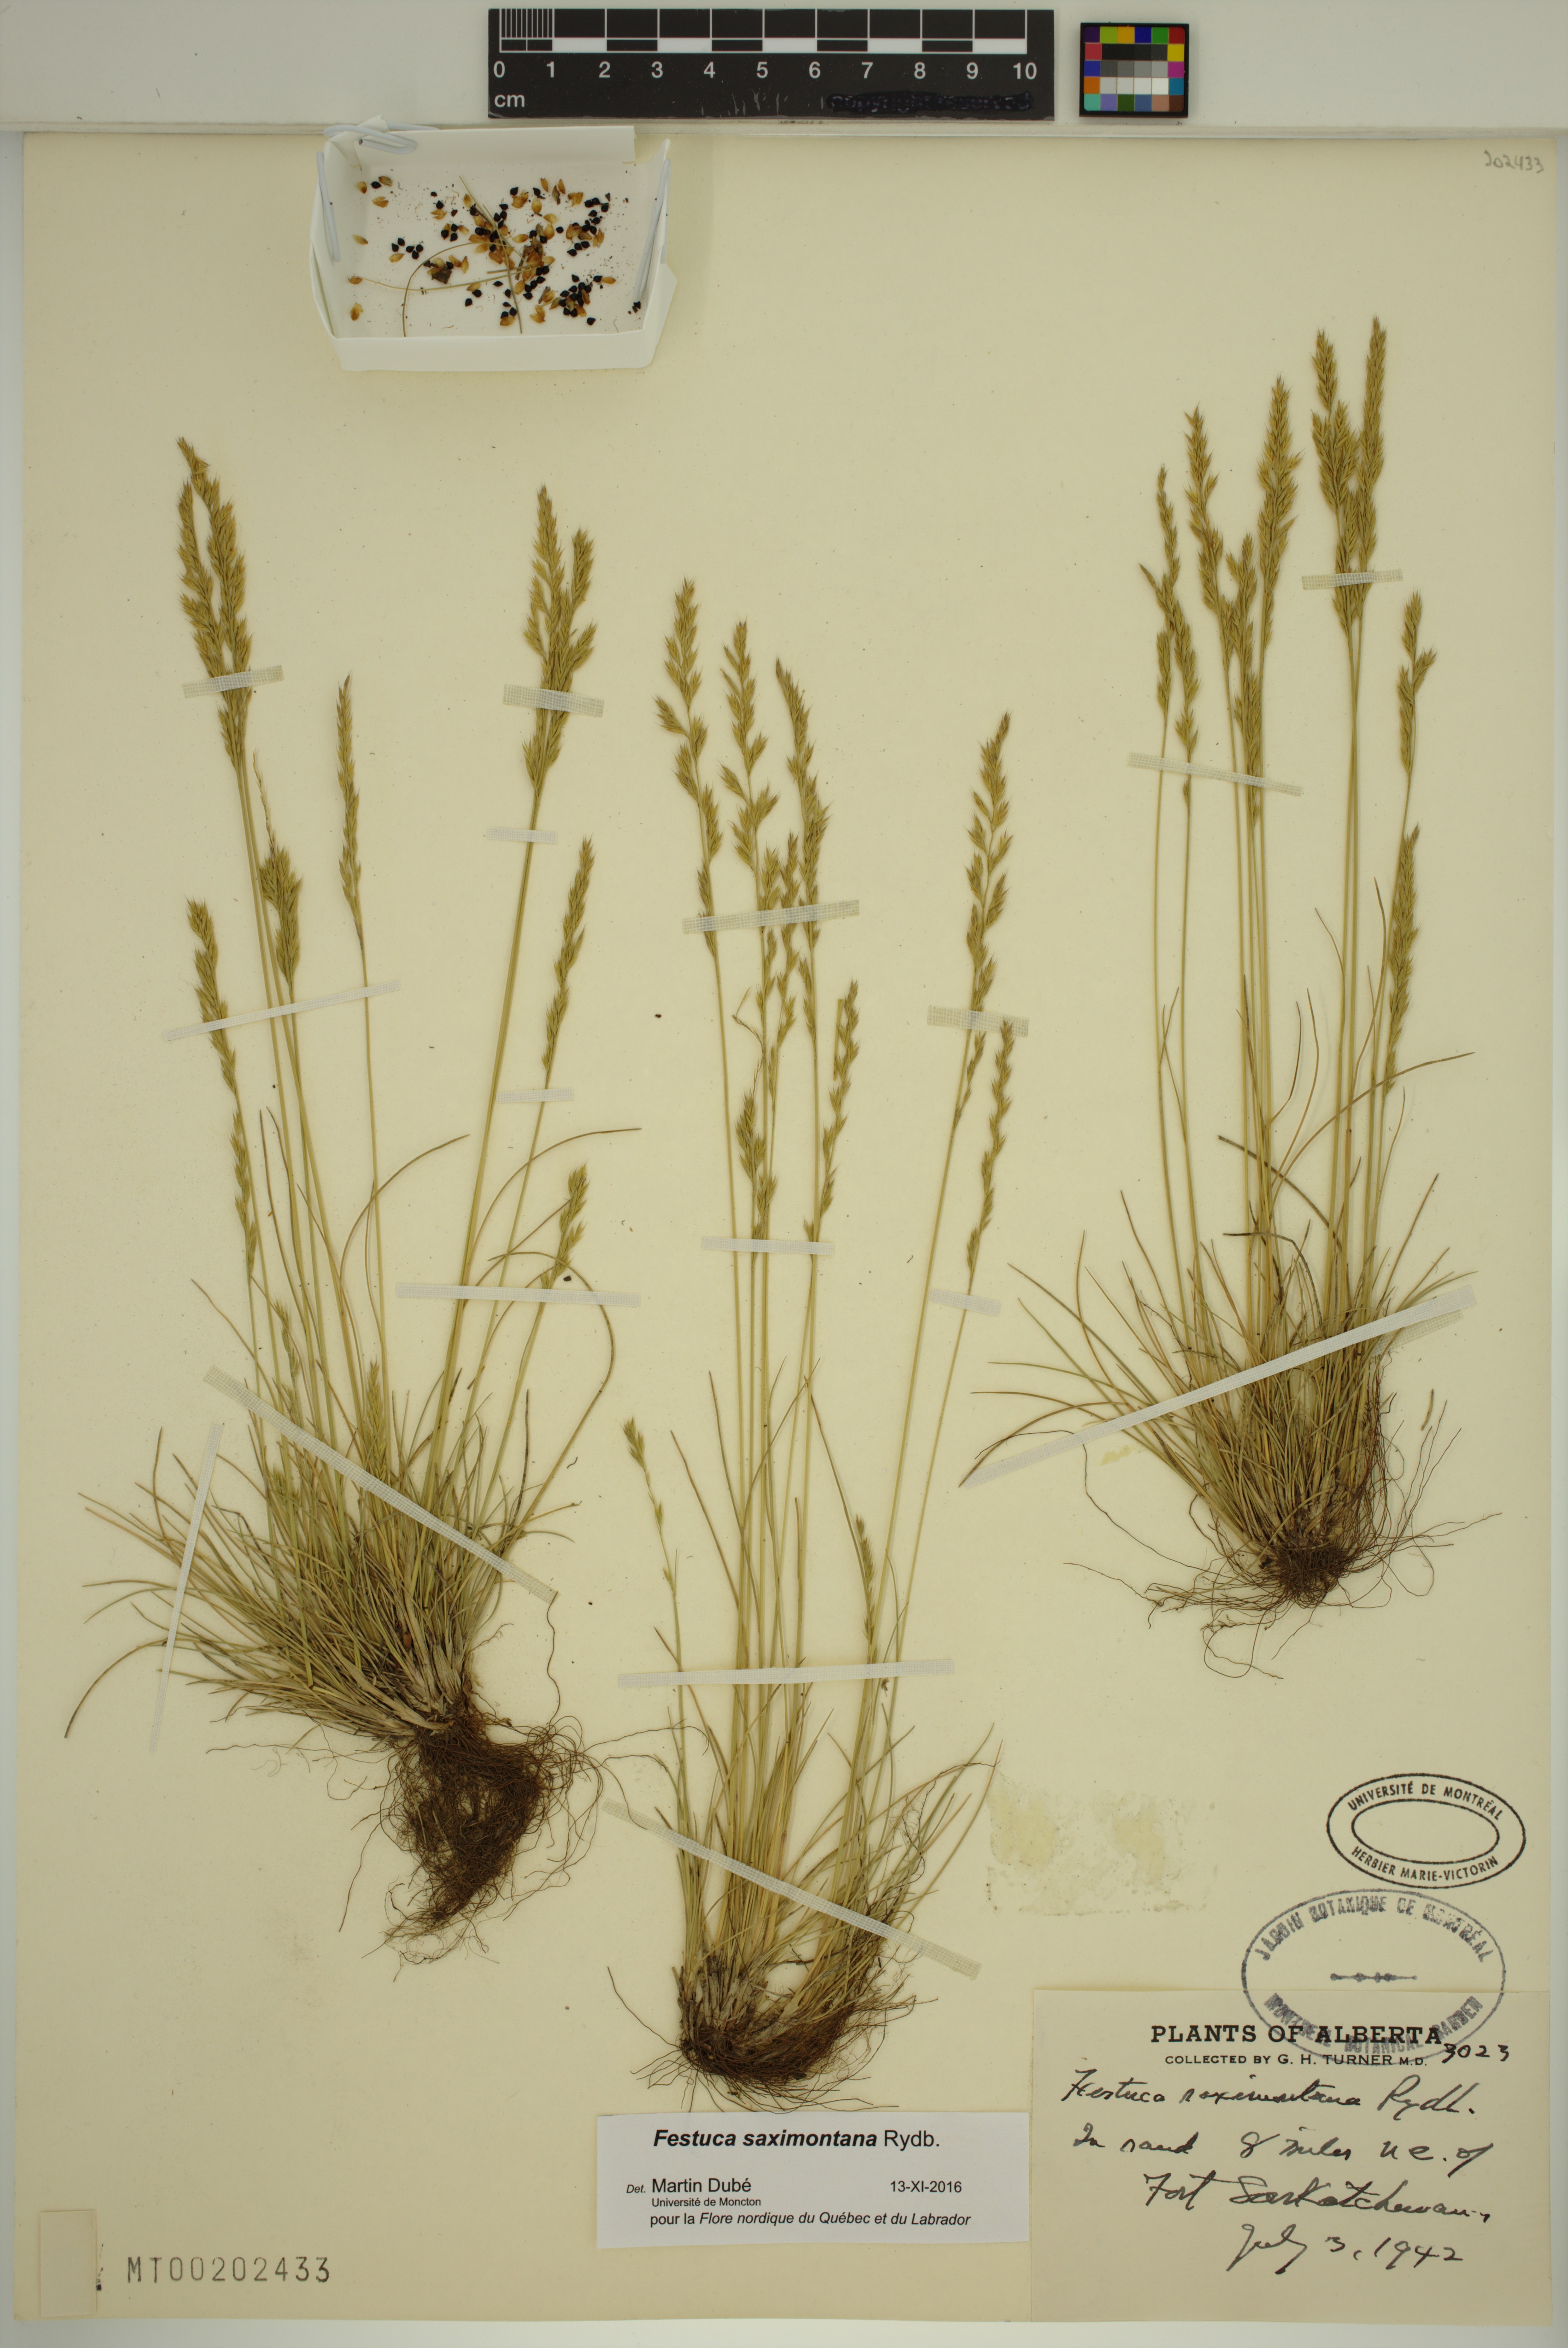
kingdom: Plantae
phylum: Tracheophyta
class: Liliopsida
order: Poales
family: Poaceae
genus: Festuca
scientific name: Festuca saximontana
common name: Mountain fescue
